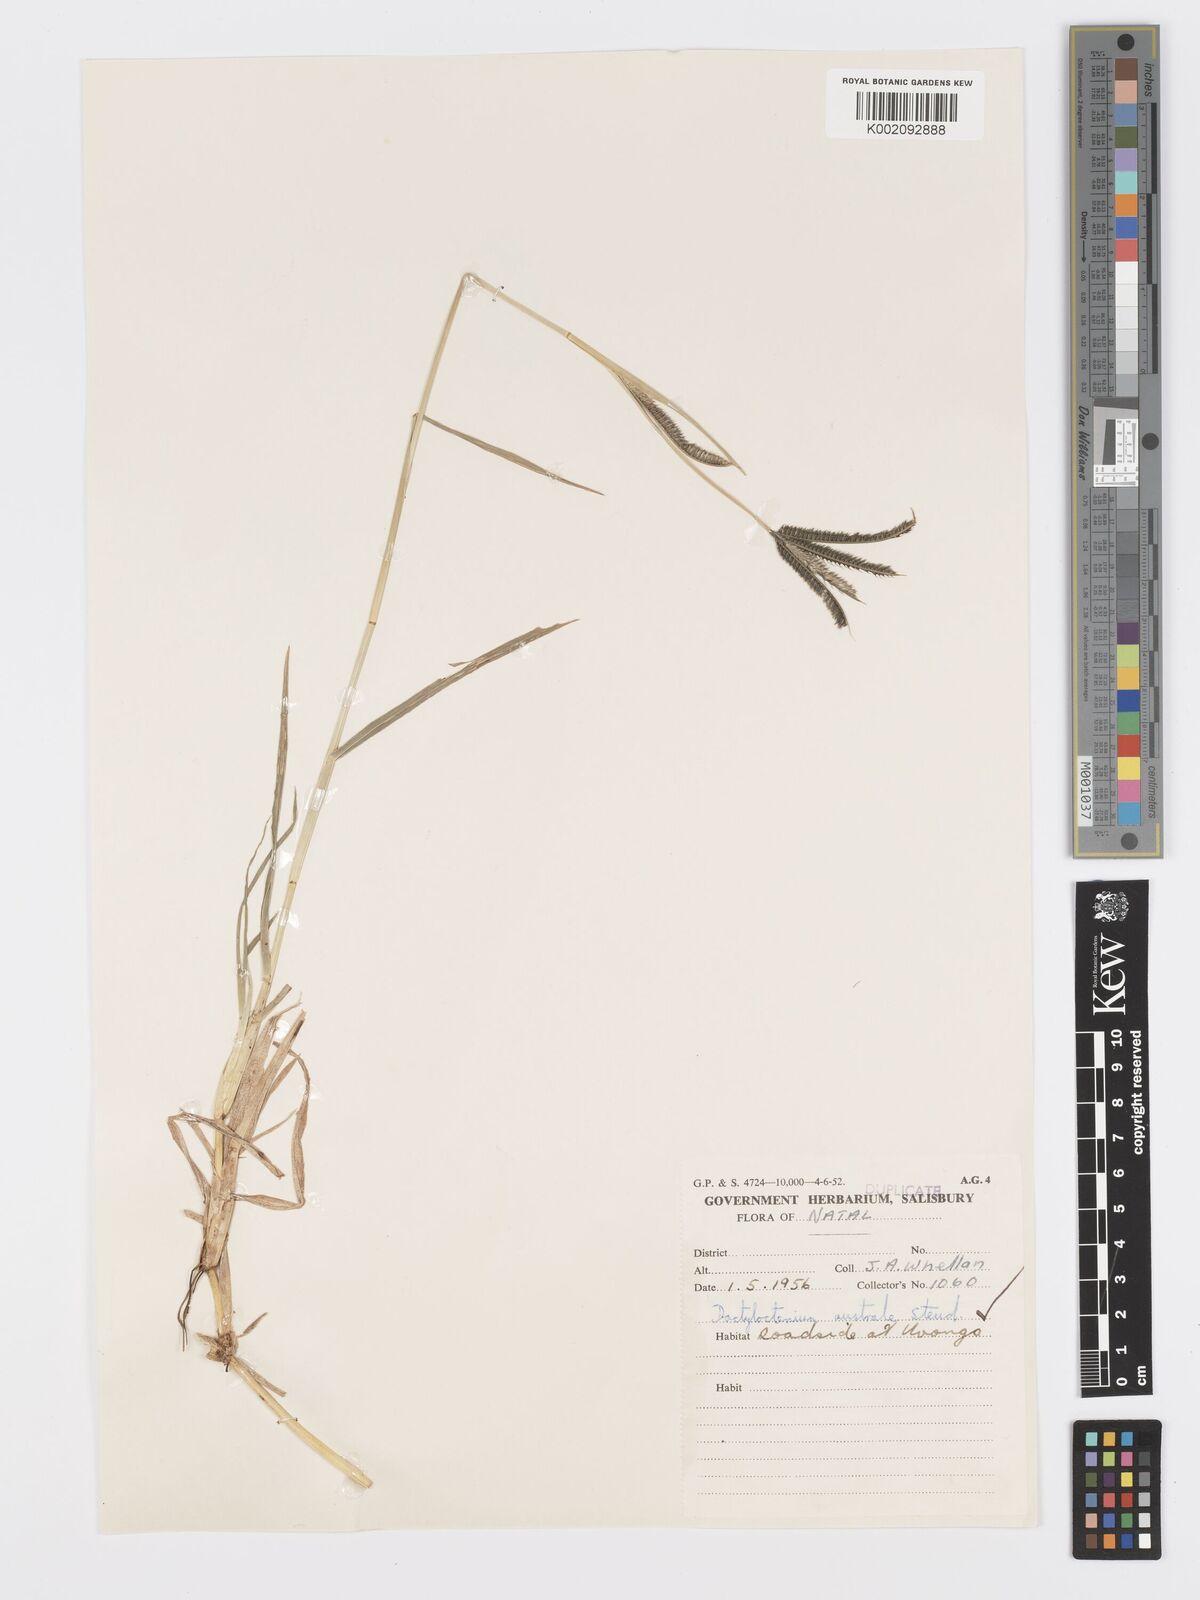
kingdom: Plantae
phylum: Tracheophyta
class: Liliopsida
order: Poales
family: Poaceae
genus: Dactyloctenium
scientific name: Dactyloctenium australe
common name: Durban grass
